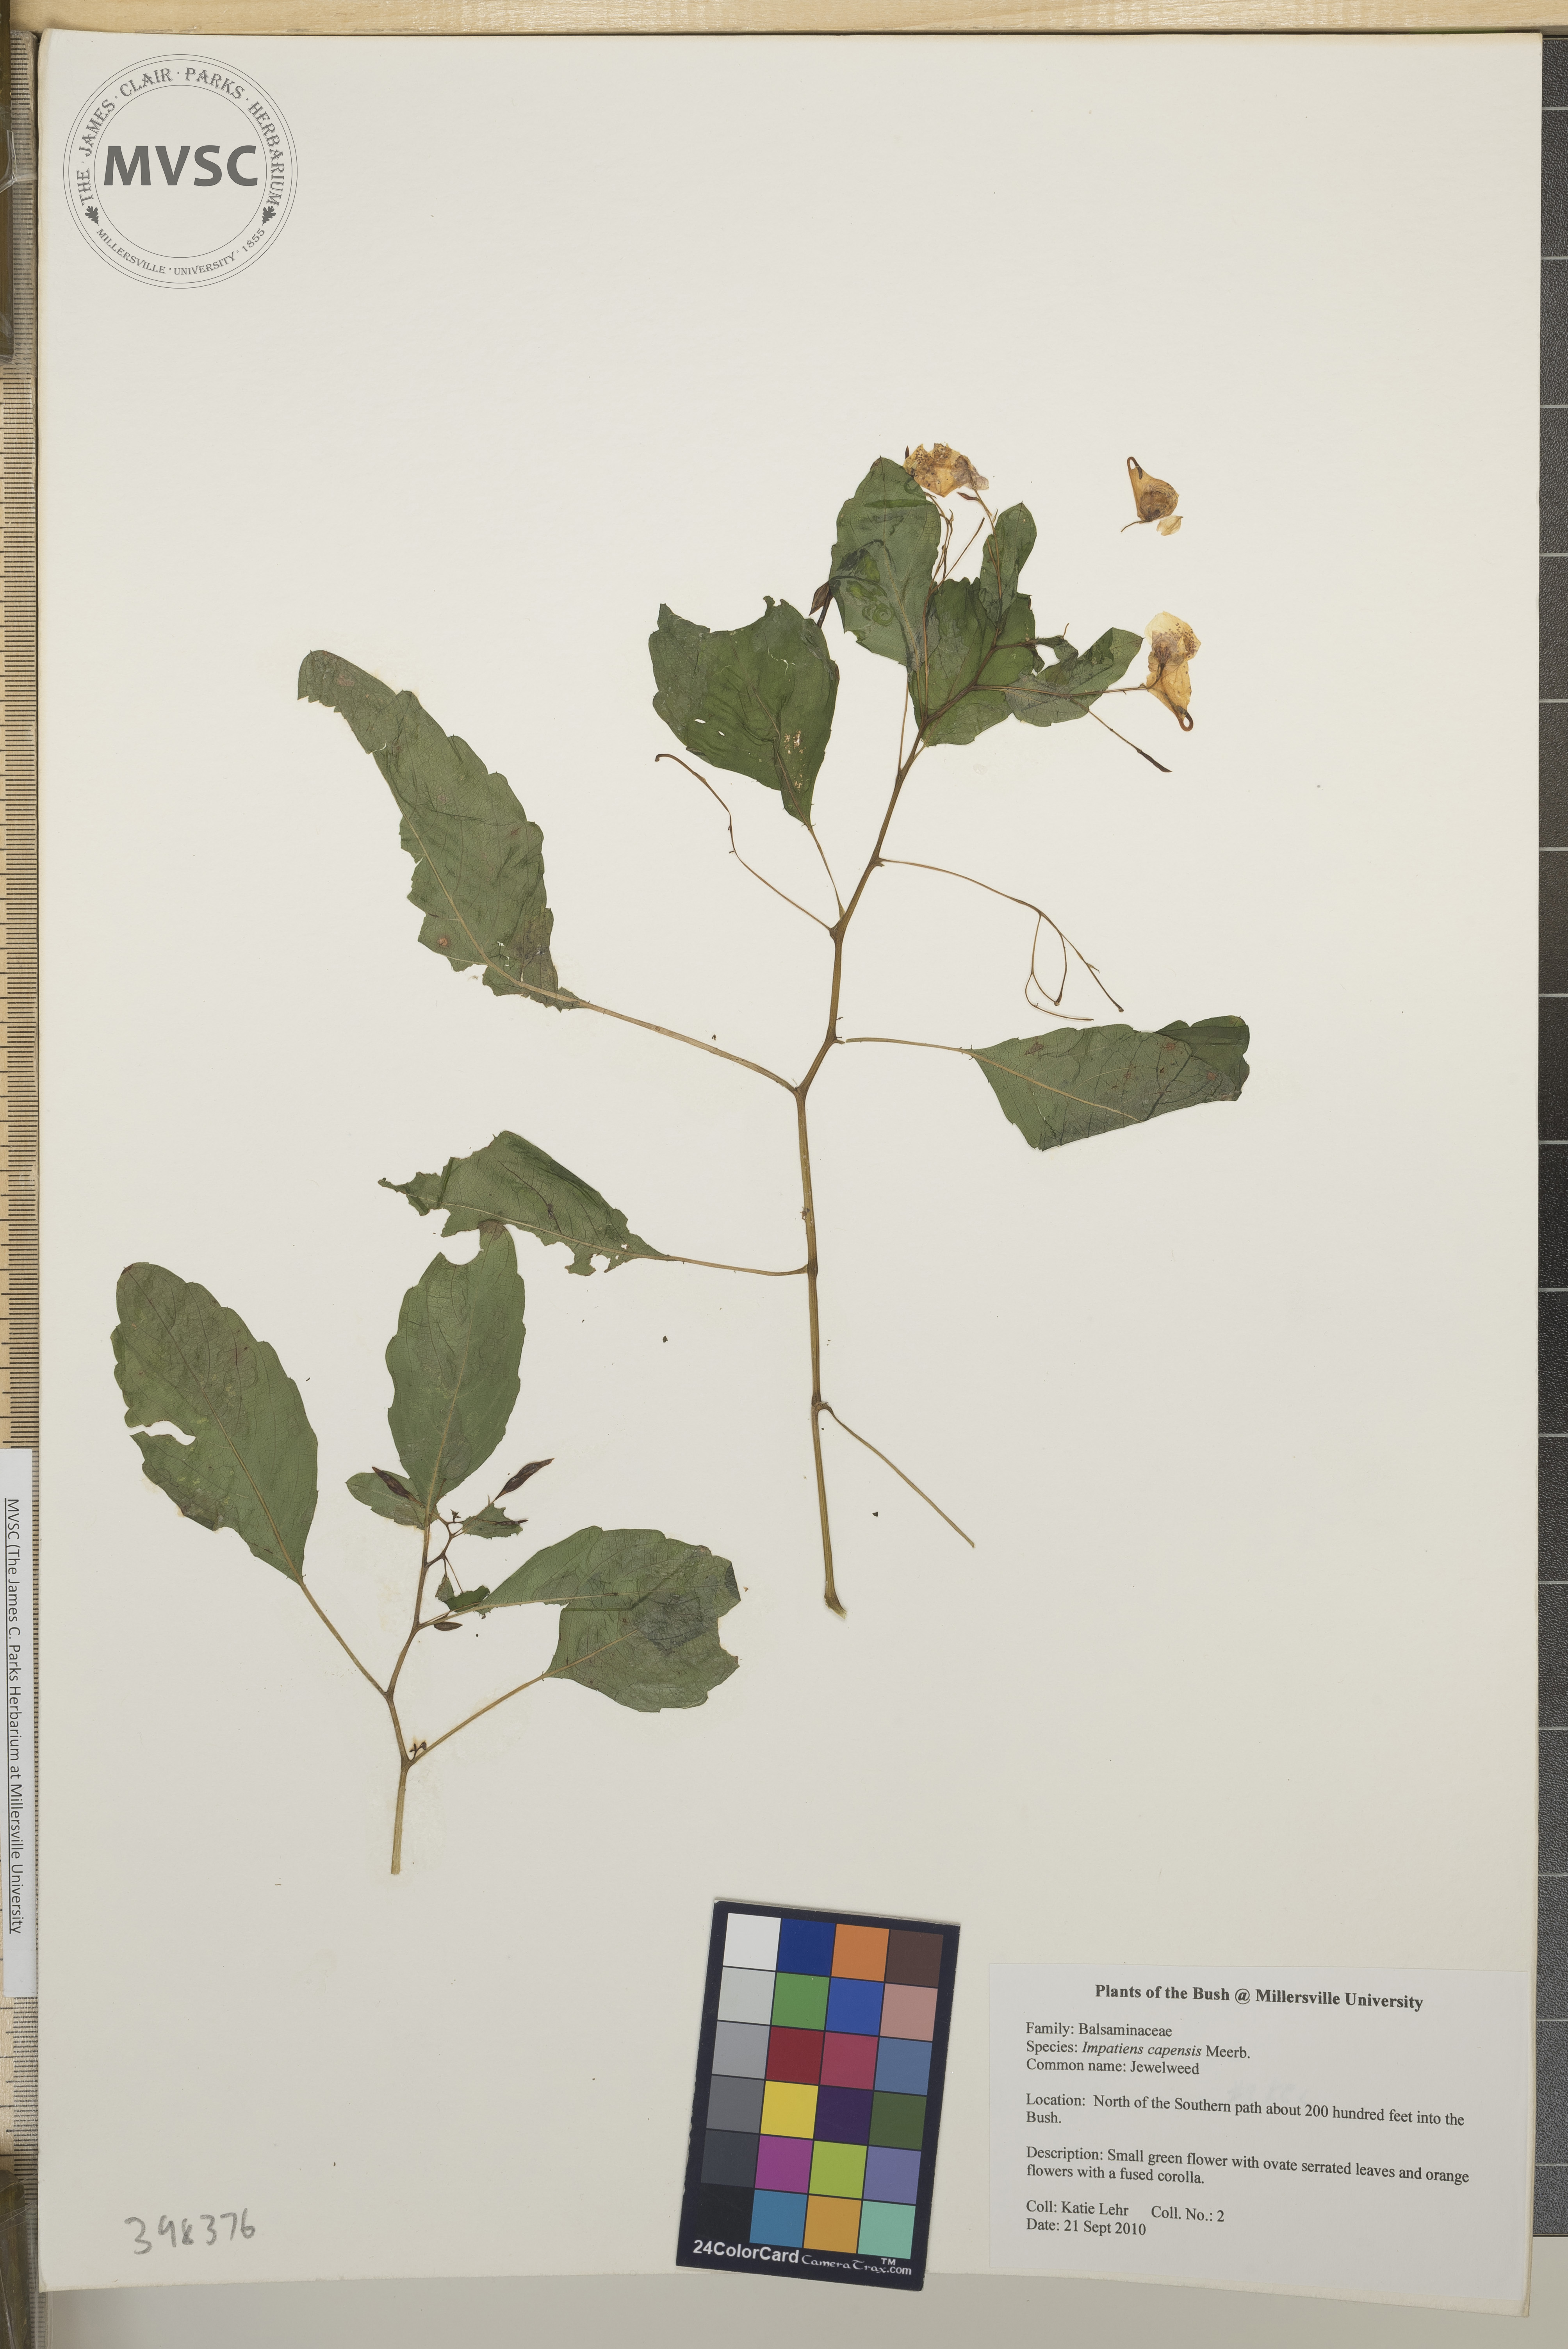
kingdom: Plantae
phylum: Tracheophyta
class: Magnoliopsida
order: Ericales
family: Balsaminaceae
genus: Impatiens
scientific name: Impatiens capensis
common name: Jewelweed
